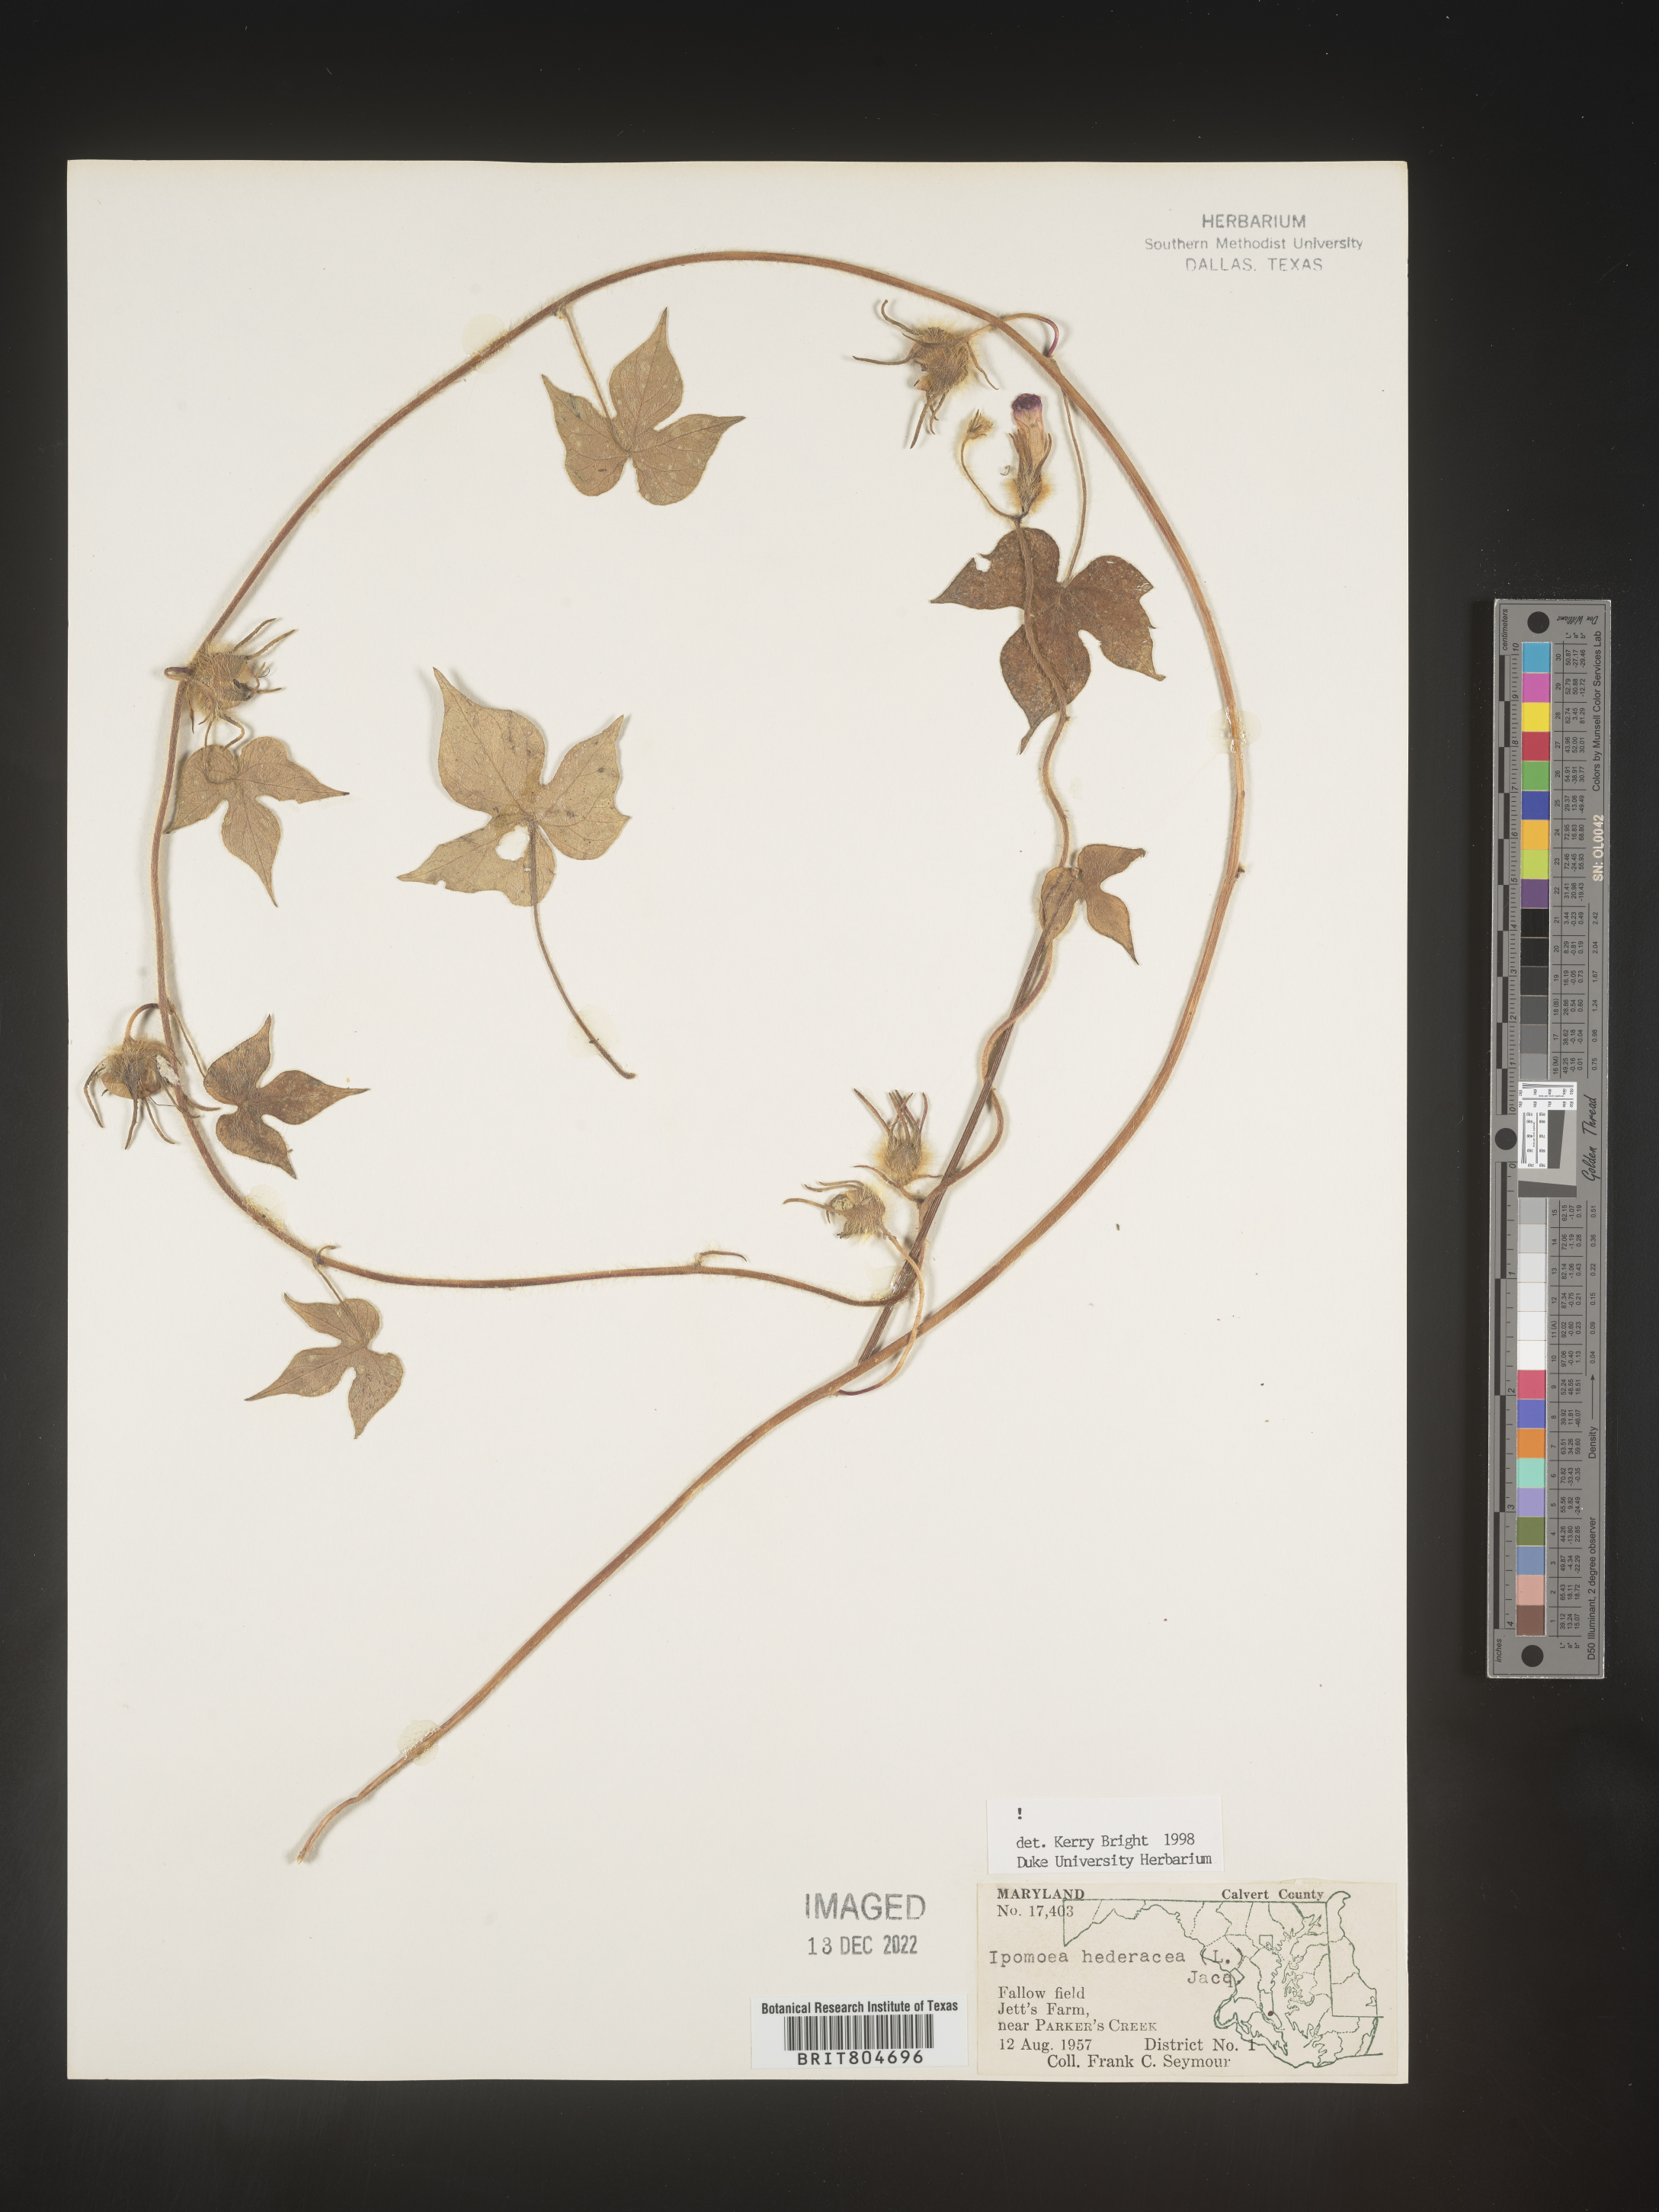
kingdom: Plantae
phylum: Tracheophyta
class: Magnoliopsida
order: Solanales
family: Convolvulaceae
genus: Ipomoea
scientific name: Ipomoea hederacea
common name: Ivy-leaved morning-glory
